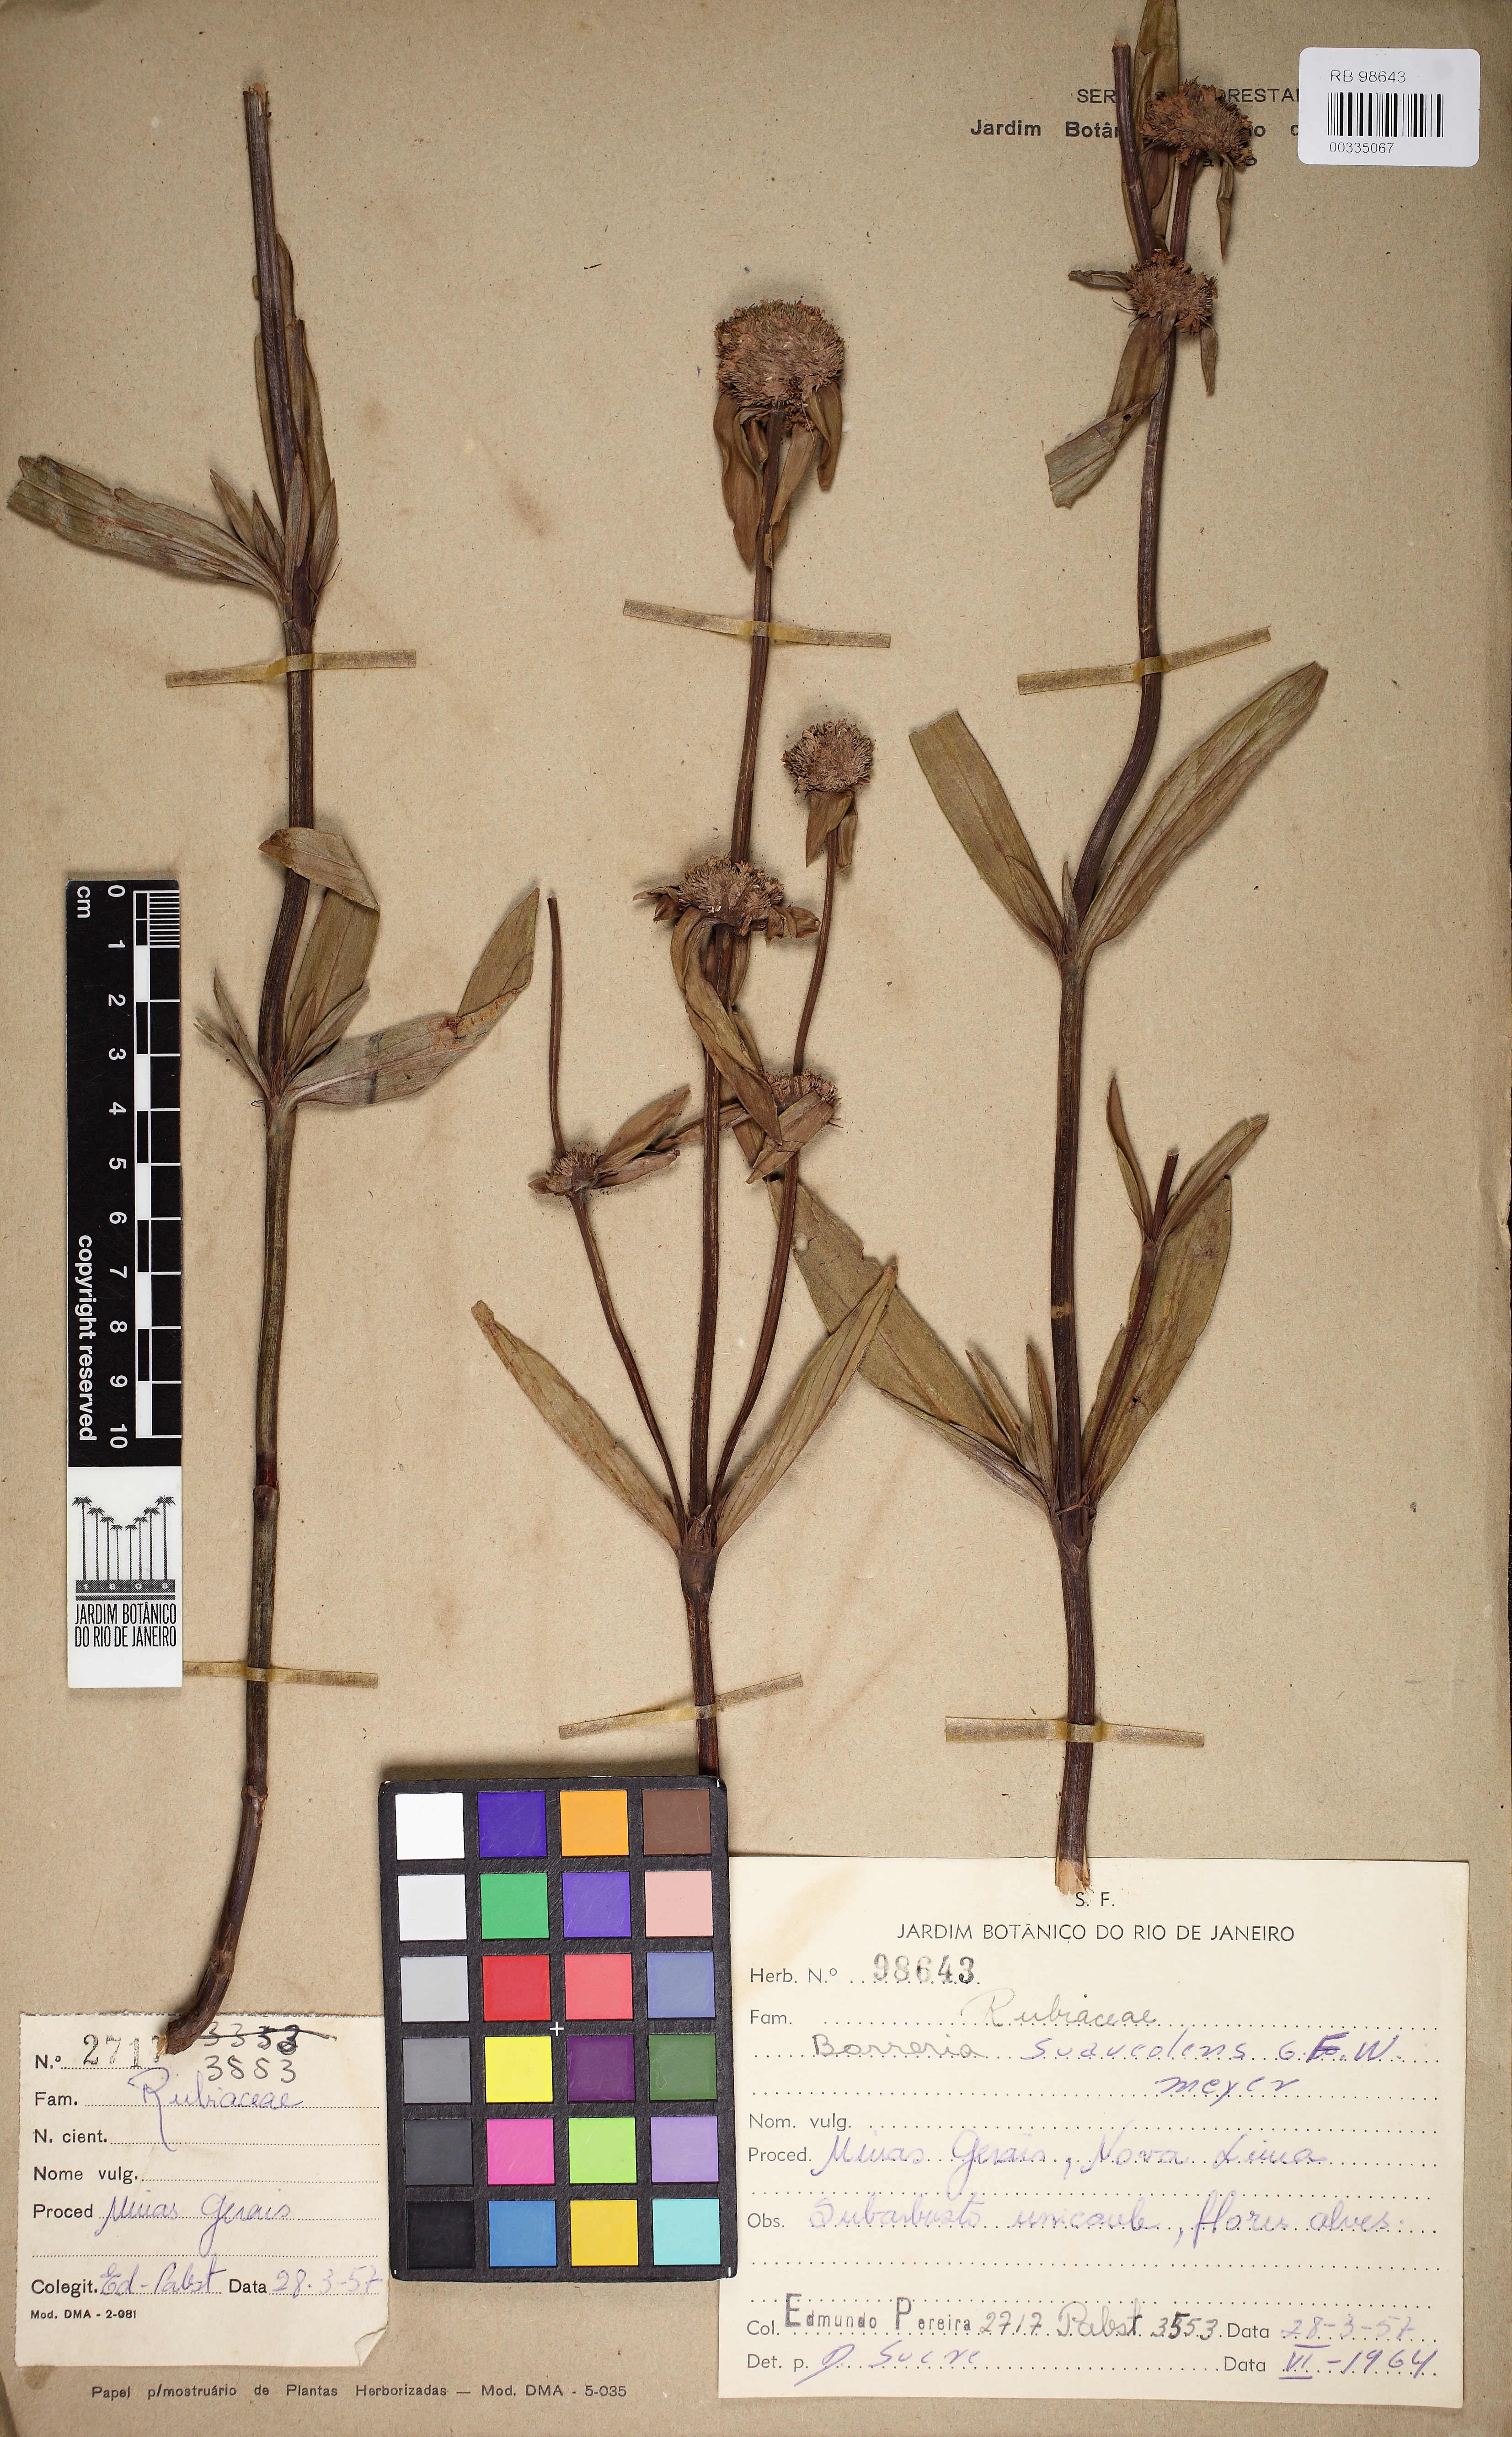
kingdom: Plantae
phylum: Tracheophyta
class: Magnoliopsida
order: Gentianales
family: Rubiaceae
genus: Spermacoce
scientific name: Spermacoce warmingii
